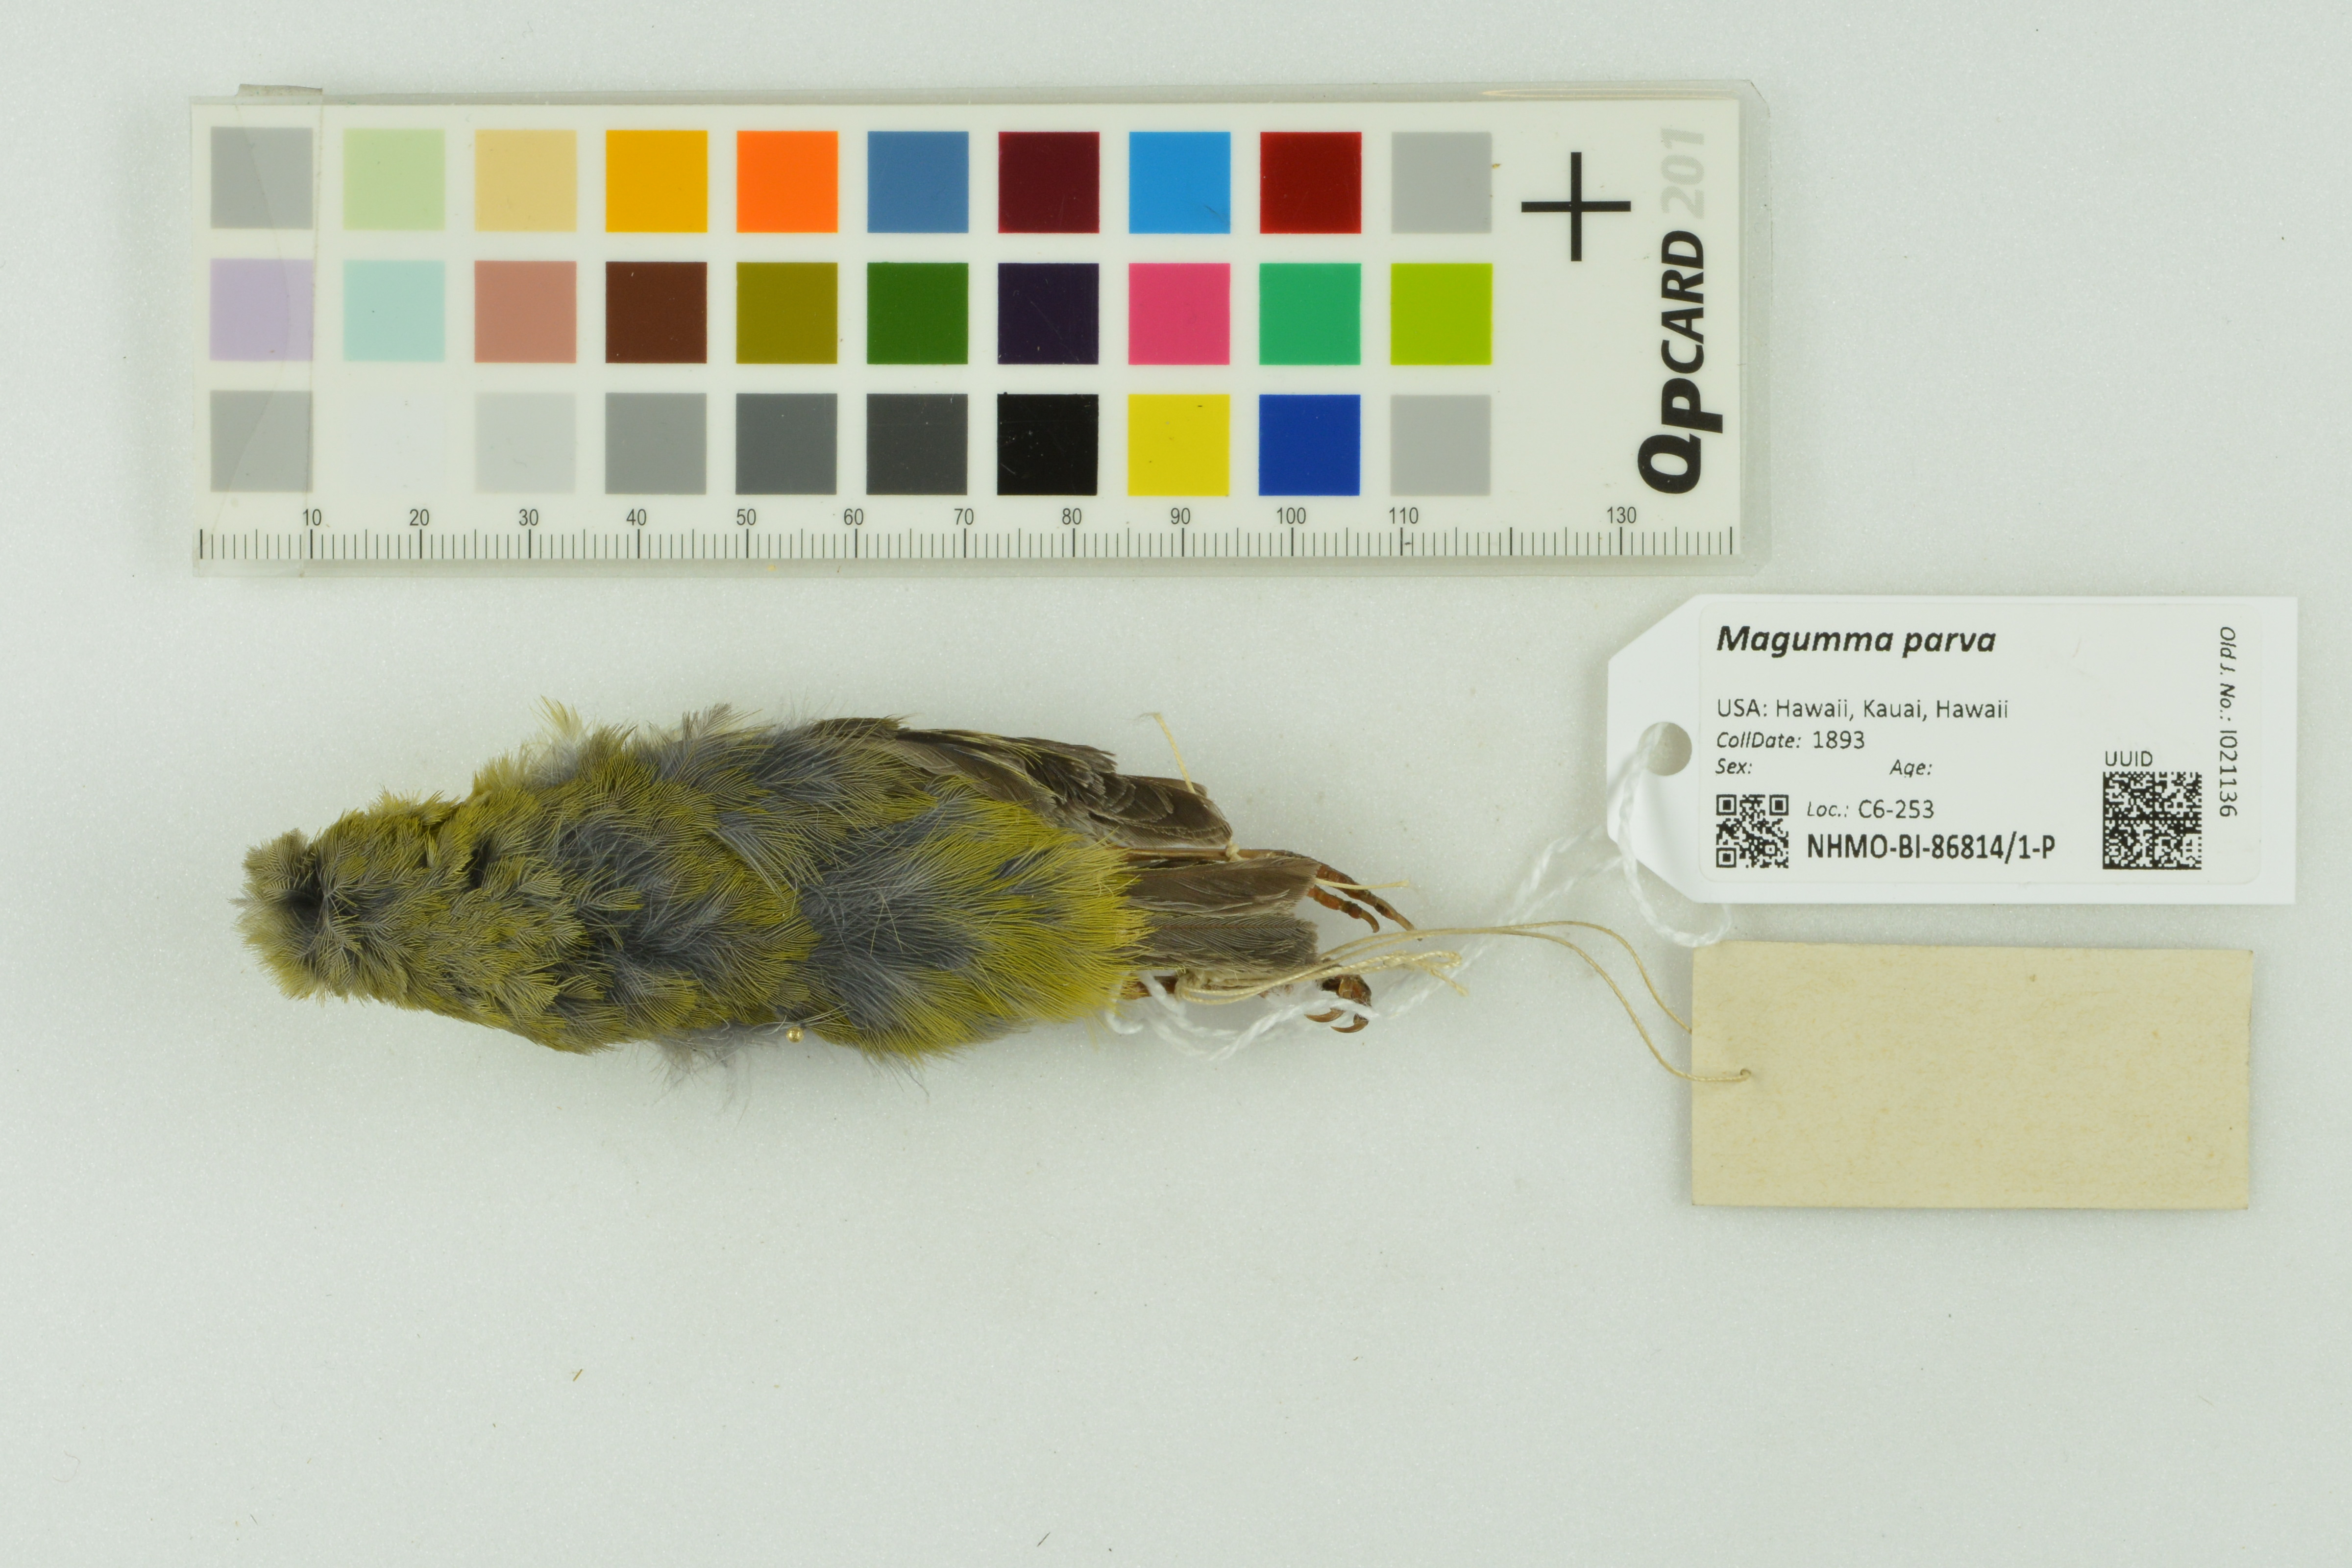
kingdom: Animalia
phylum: Chordata
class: Aves
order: Passeriformes
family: Fringillidae
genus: Magumma
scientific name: Magumma parva
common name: Anianiau
